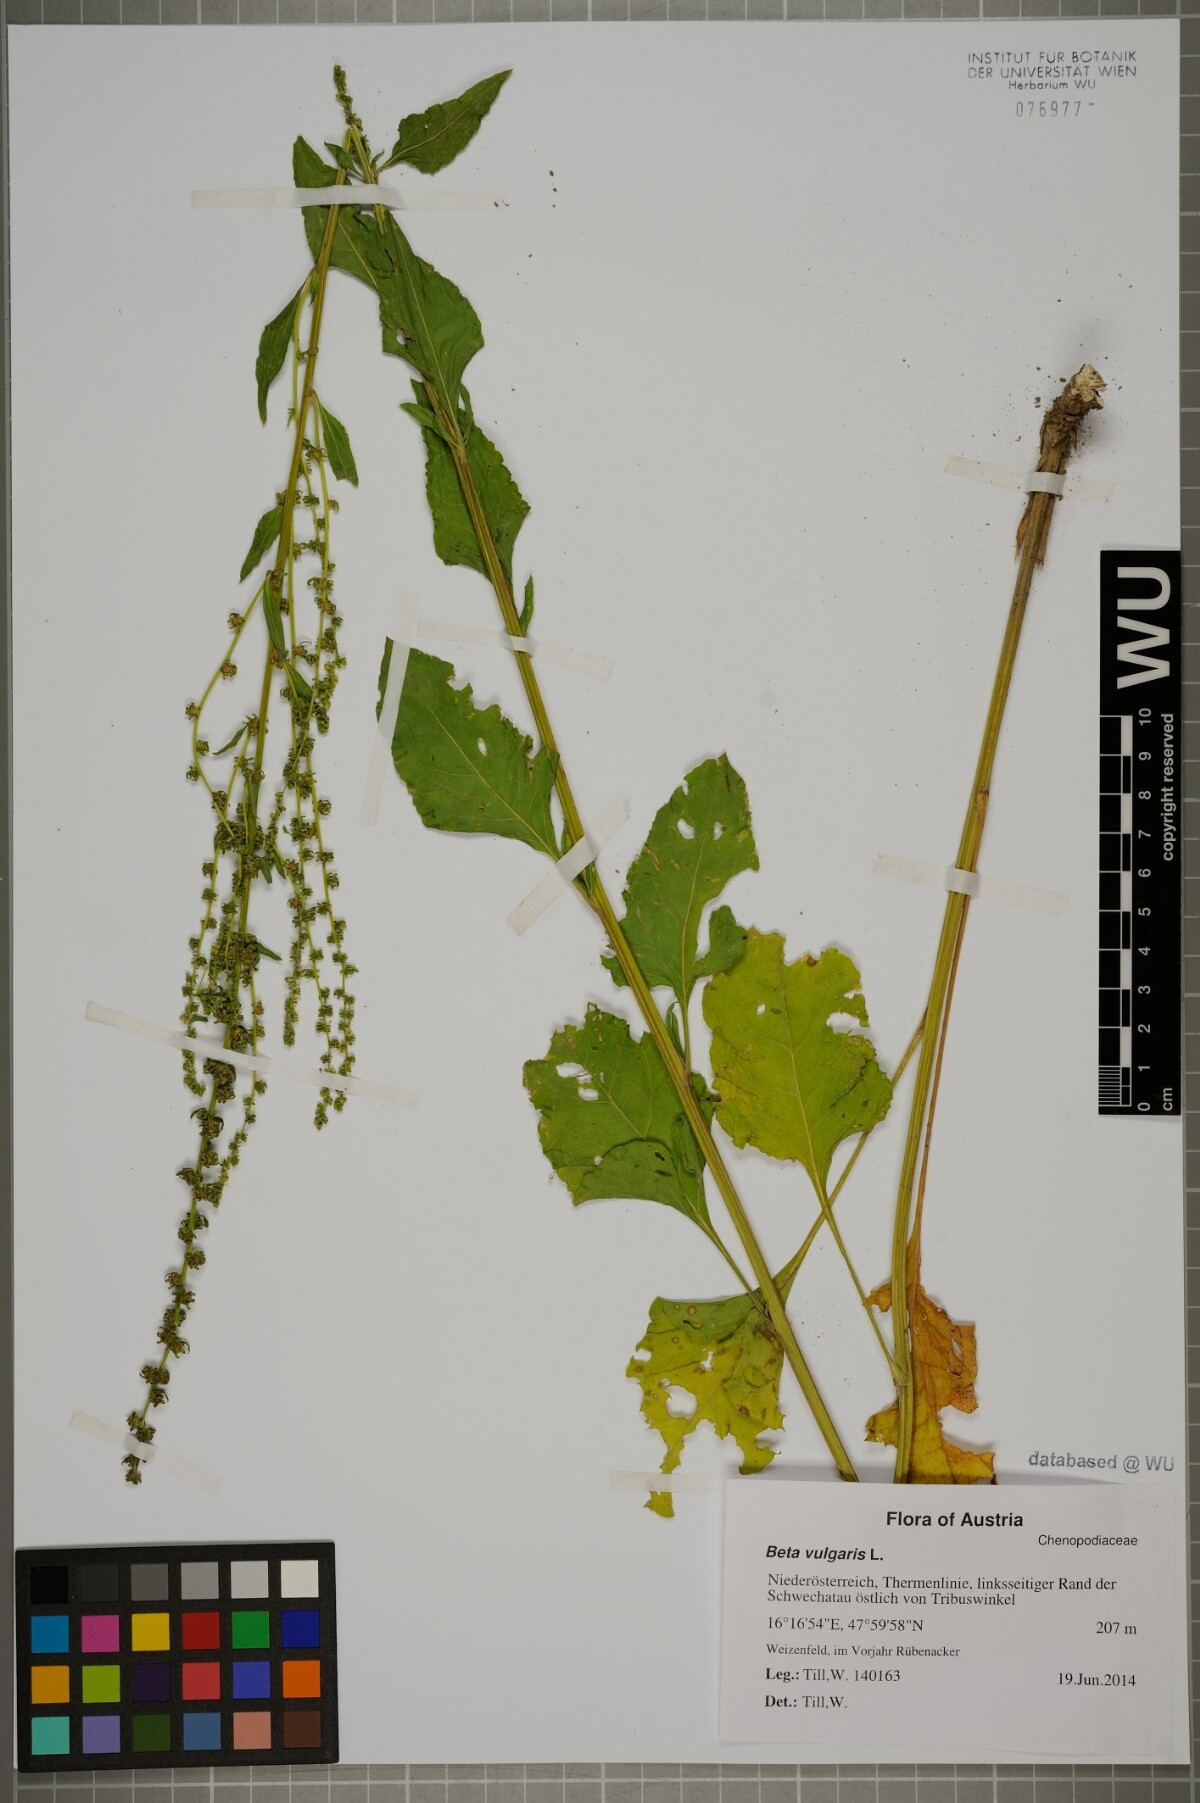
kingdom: Plantae
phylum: Tracheophyta
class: Magnoliopsida
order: Caryophyllales
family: Amaranthaceae
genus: Beta
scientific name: Beta vulgaris
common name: Beet
